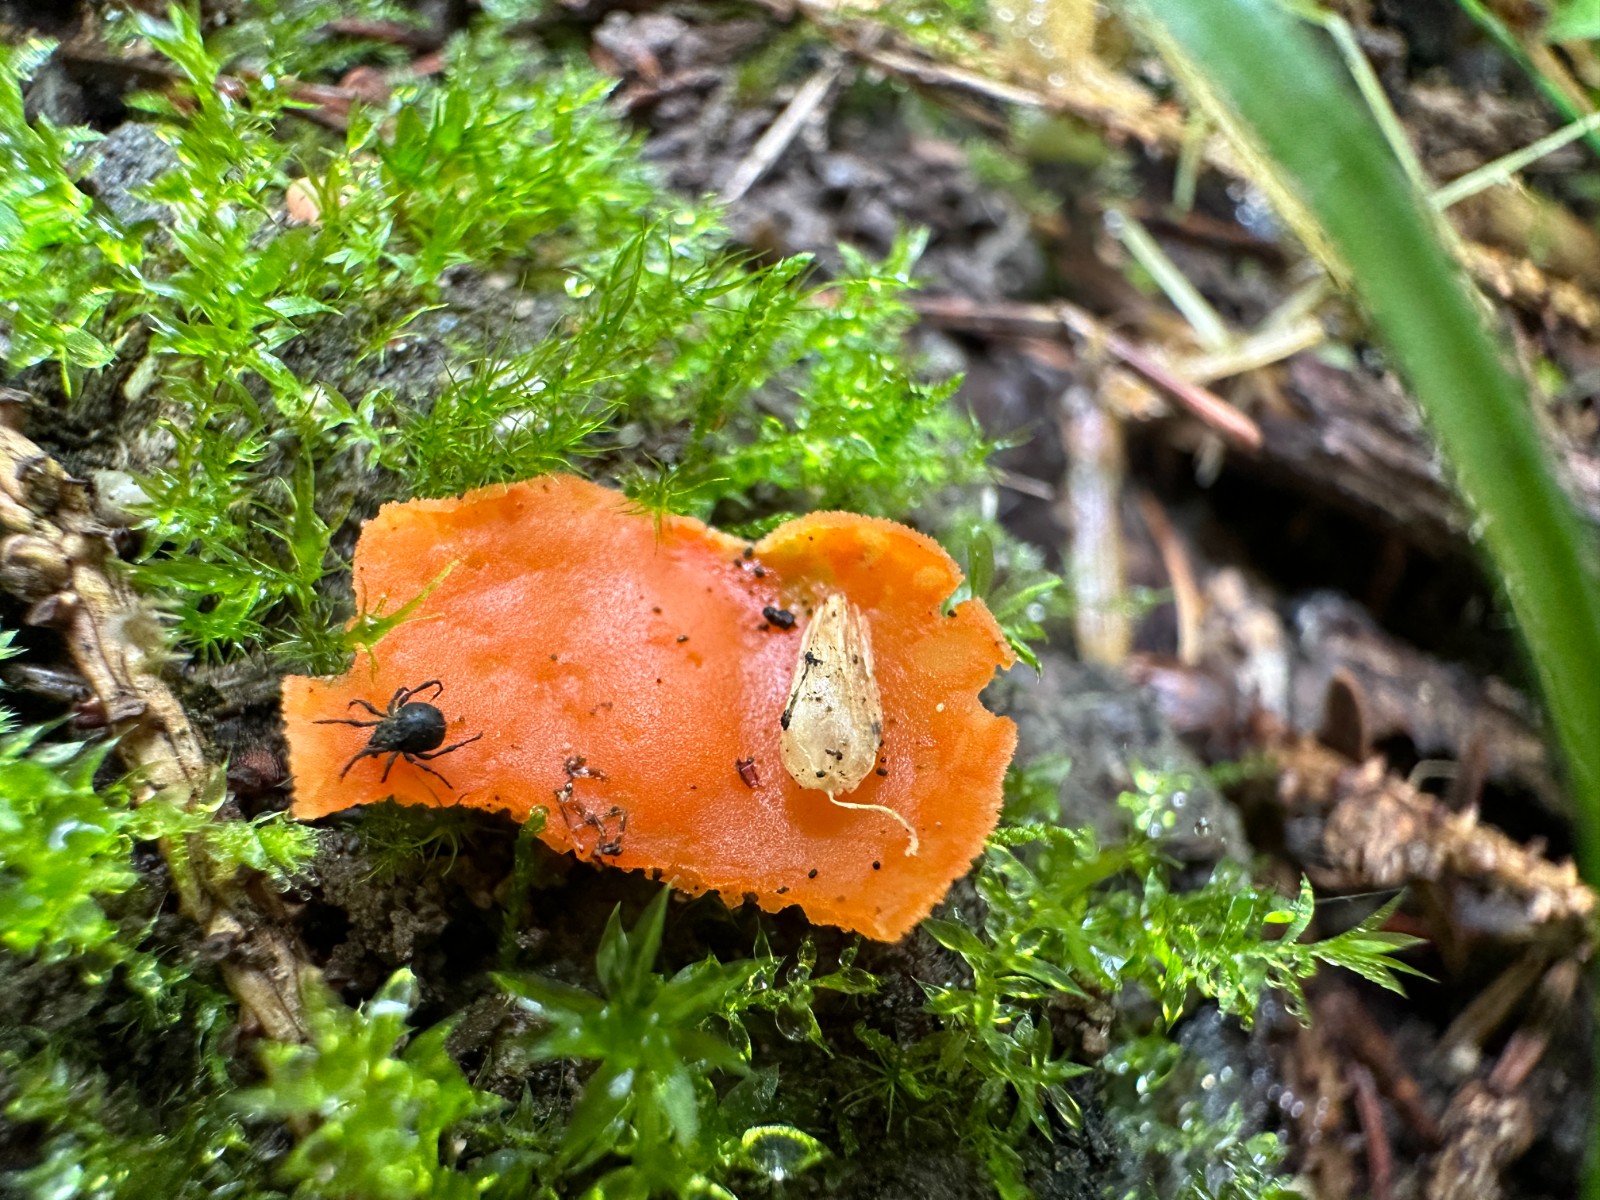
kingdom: Fungi
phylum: Ascomycota
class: Pezizomycetes
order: Pezizales
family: Pyronemataceae
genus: Aleuria
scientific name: Aleuria aurantia
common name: almindelig orangebæger
